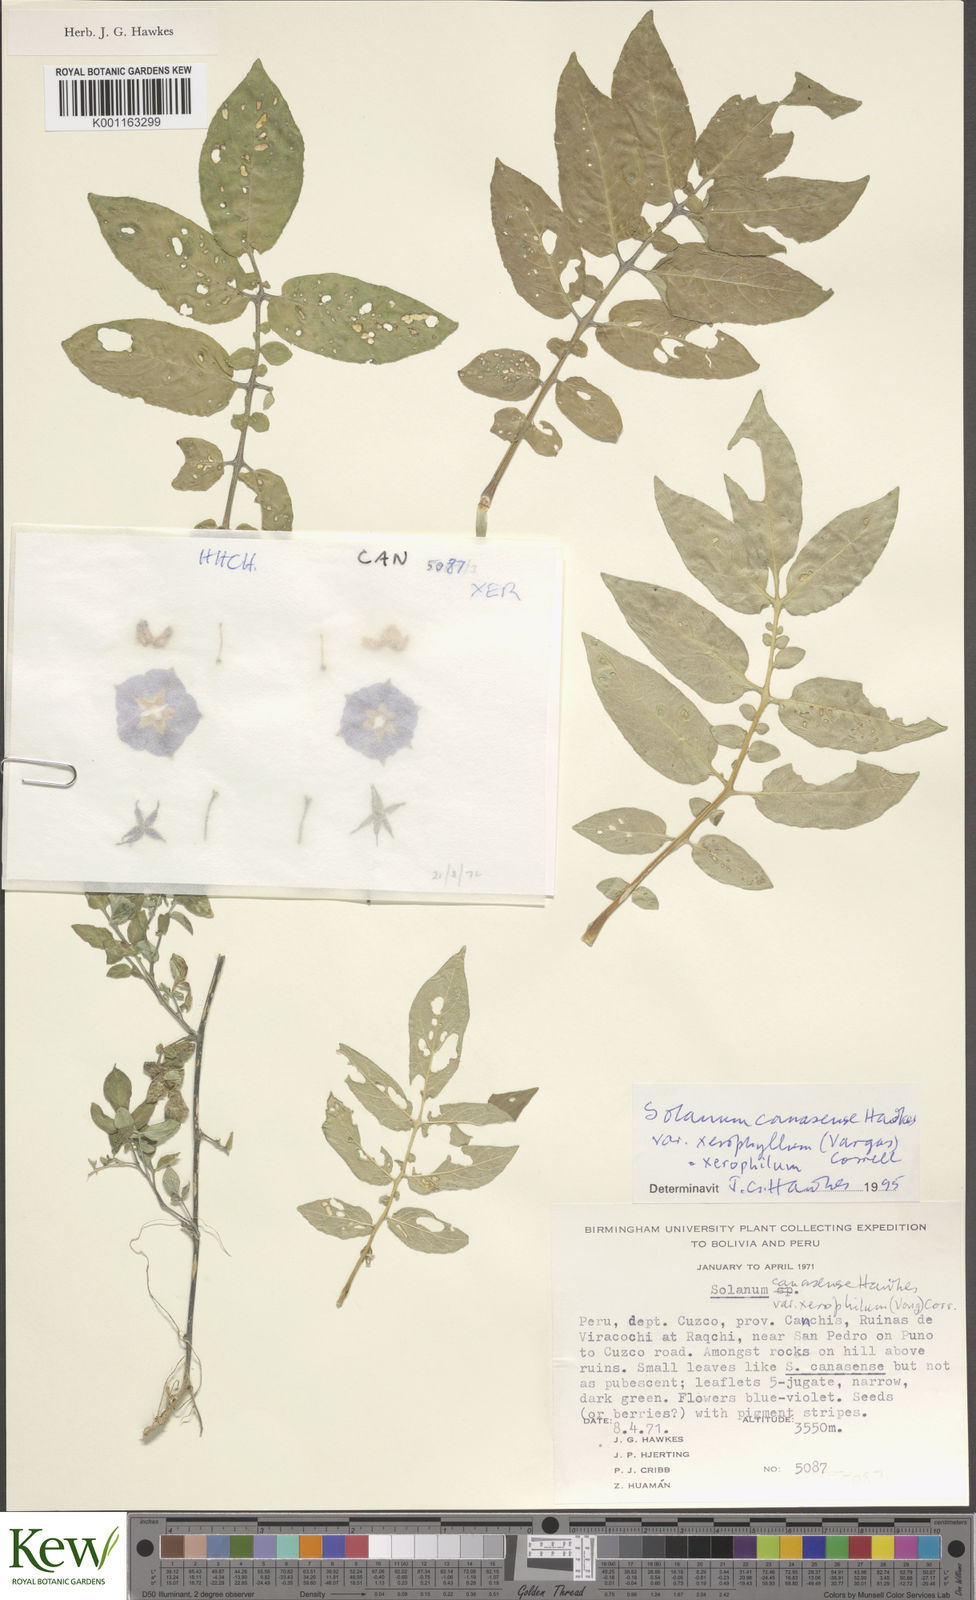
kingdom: Plantae
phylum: Tracheophyta
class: Magnoliopsida
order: Solanales
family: Solanaceae
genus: Solanum
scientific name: Solanum candolleanum
